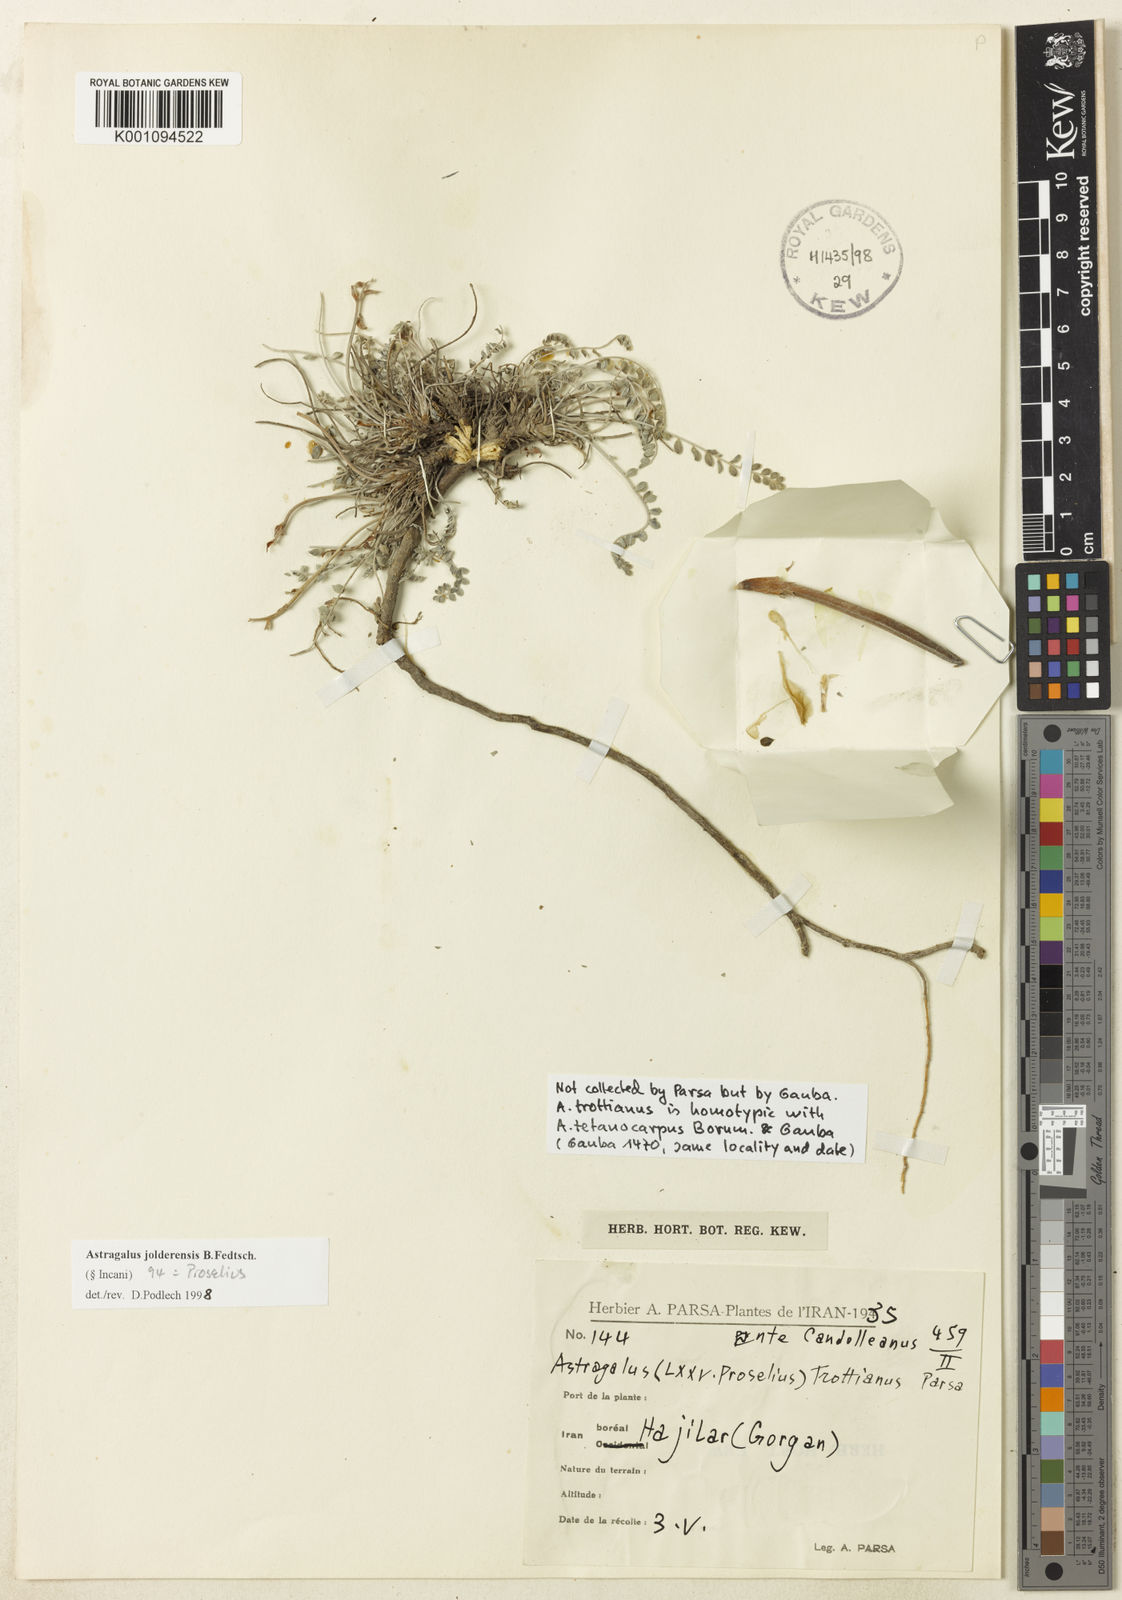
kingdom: Plantae
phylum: Tracheophyta
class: Magnoliopsida
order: Fabales
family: Fabaceae
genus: Astragalus
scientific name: Astragalus
